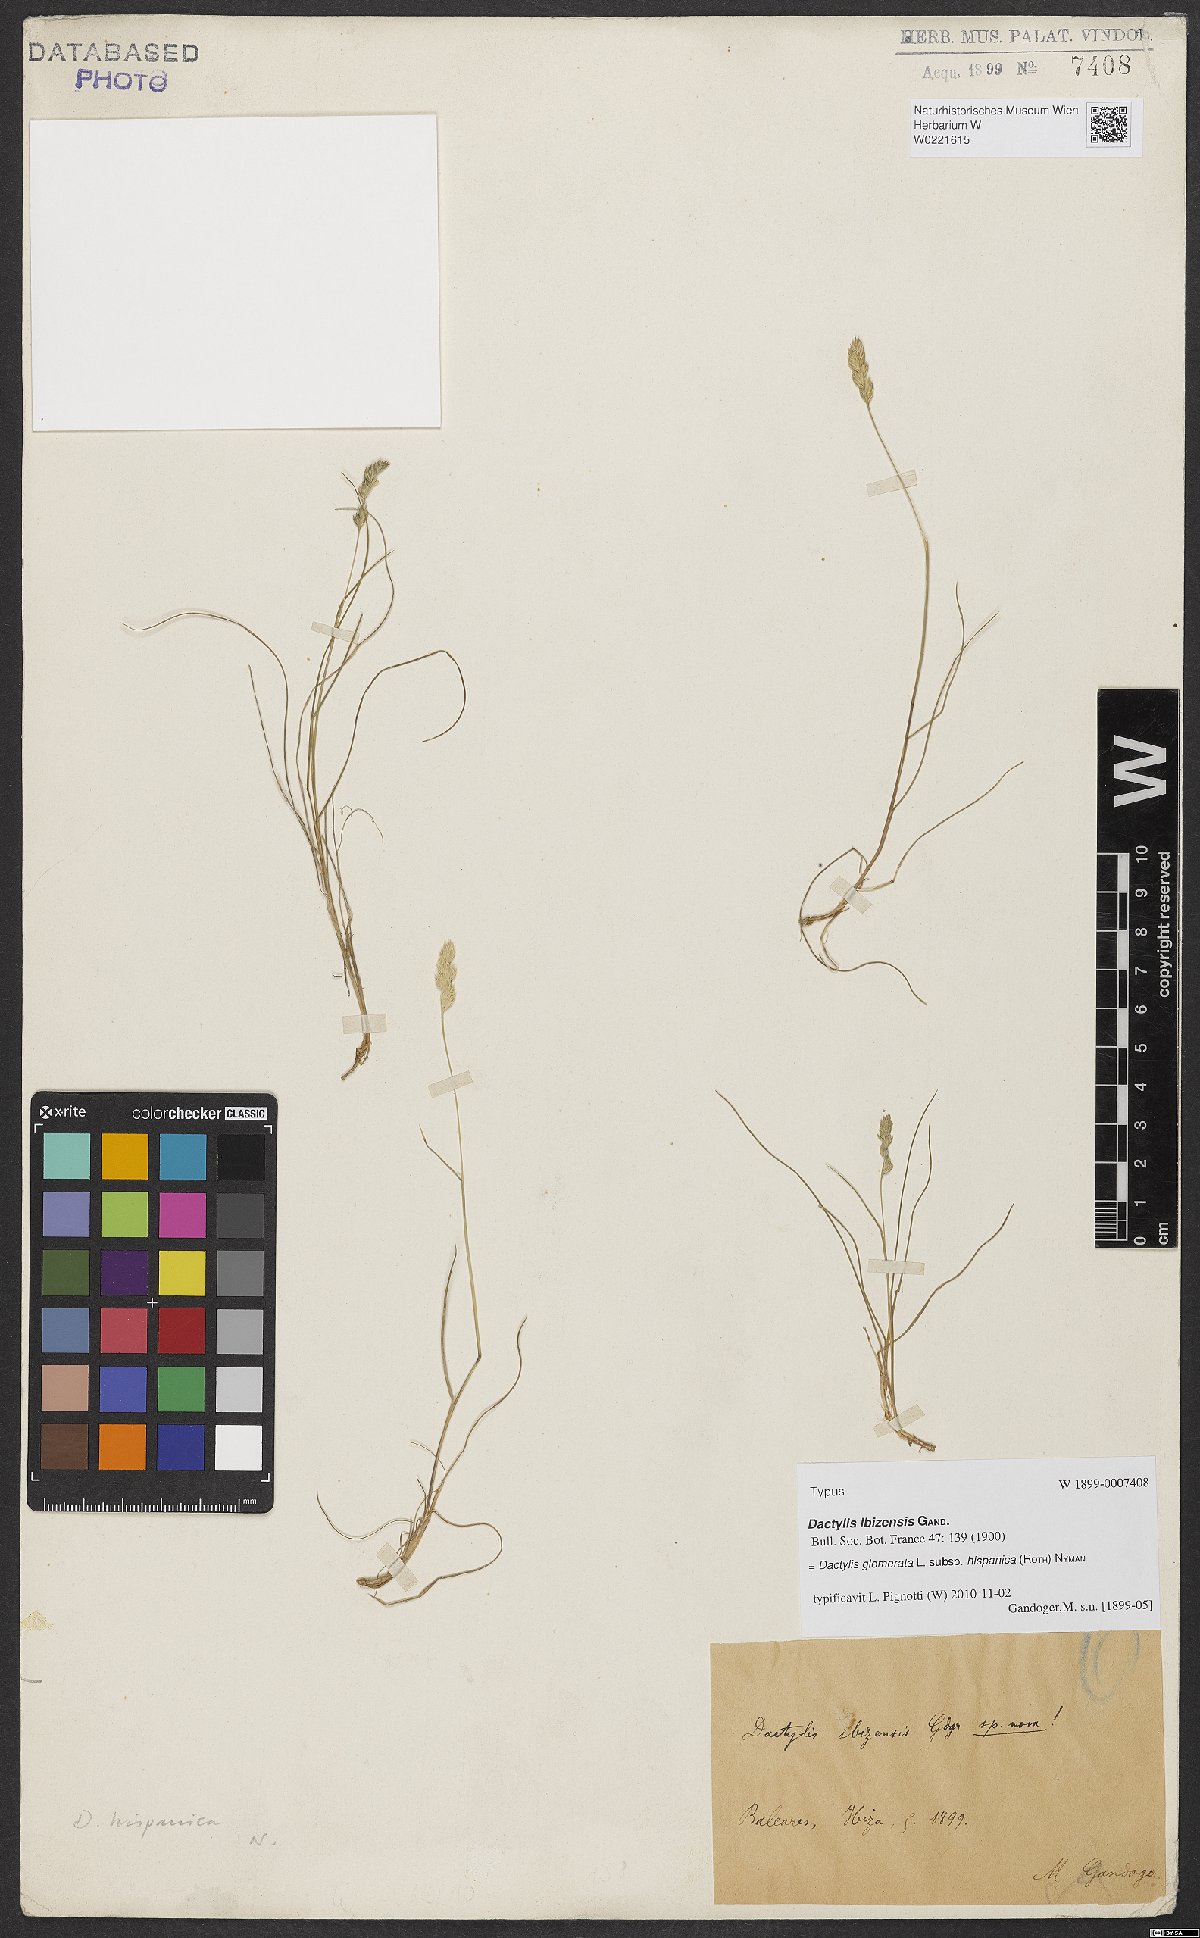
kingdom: Plantae
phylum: Tracheophyta
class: Liliopsida
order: Poales
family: Poaceae
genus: Dactylis
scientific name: Dactylis glomerata
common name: Orchardgrass
